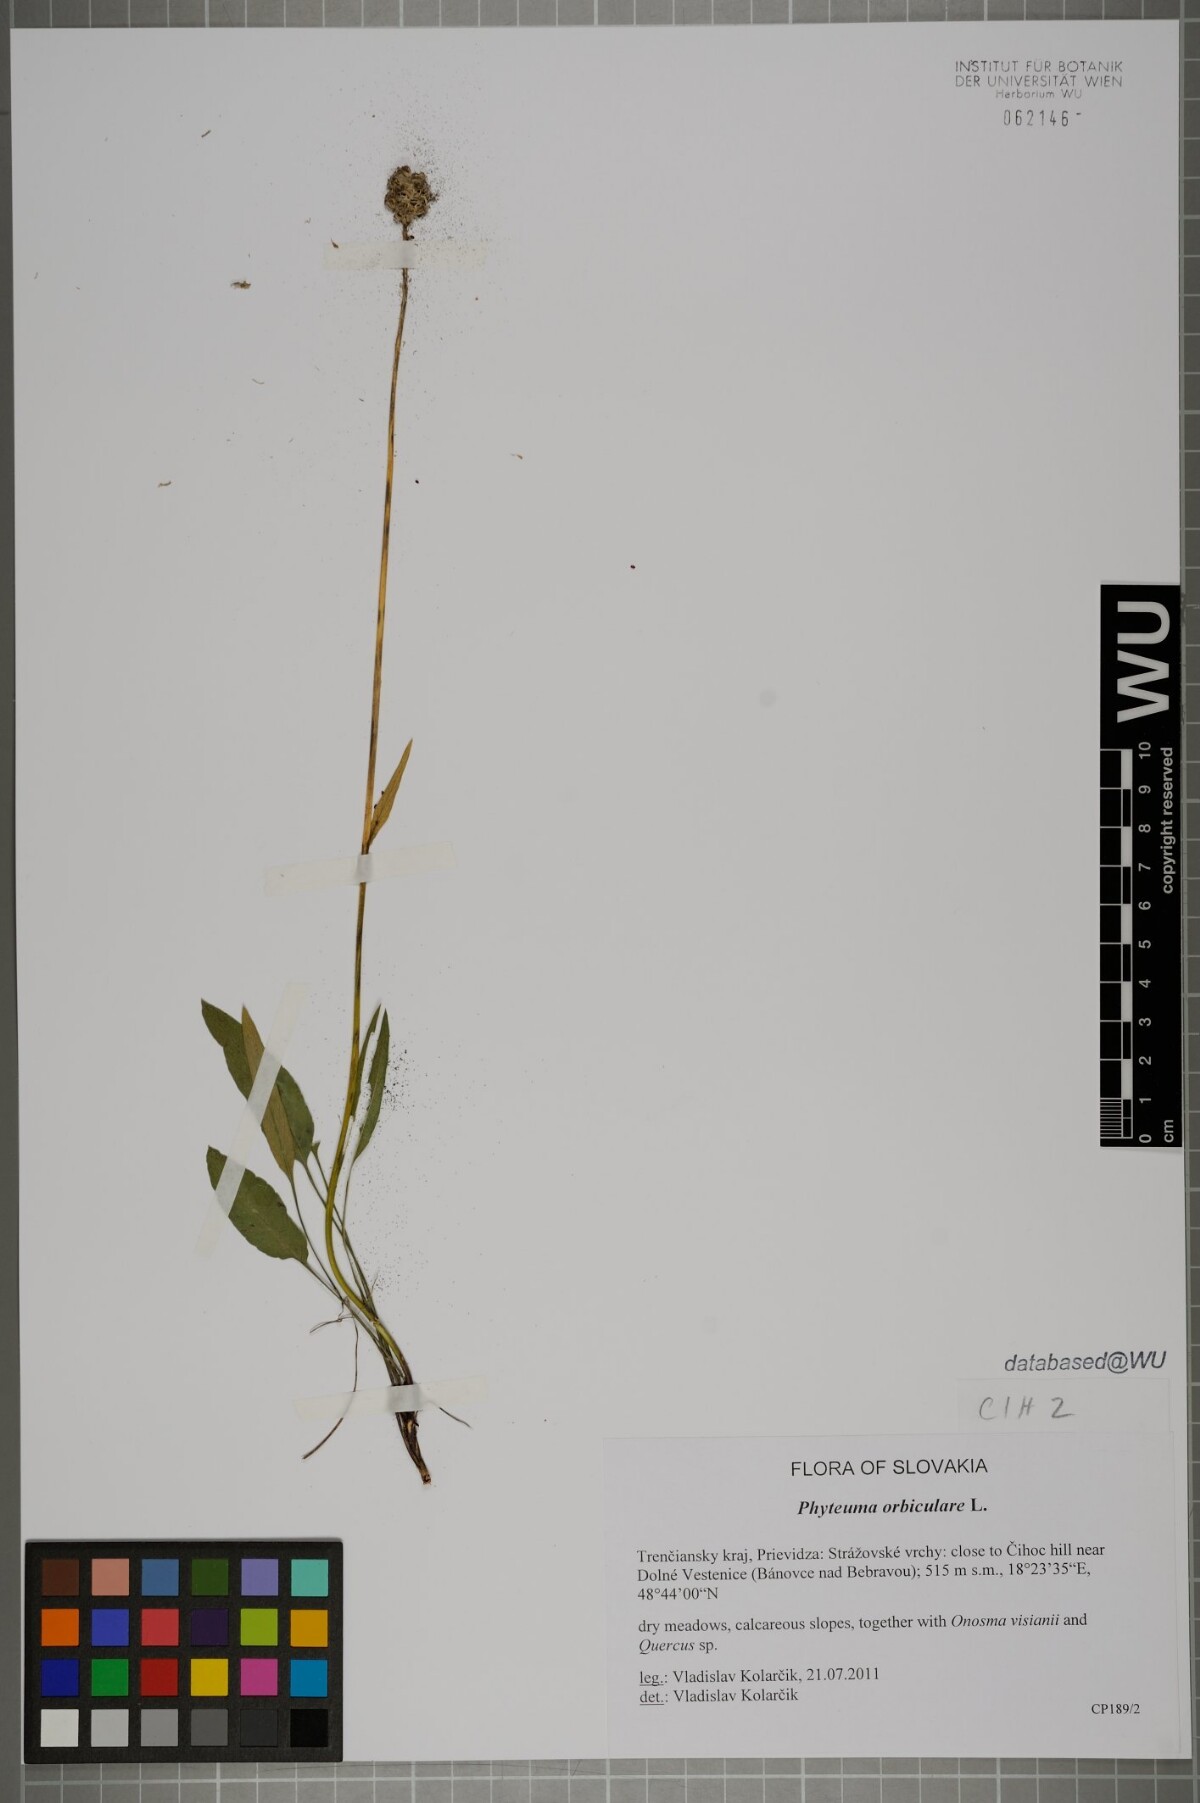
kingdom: Plantae
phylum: Tracheophyta
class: Magnoliopsida
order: Asterales
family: Campanulaceae
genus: Phyteuma
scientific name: Phyteuma orbiculare
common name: Round-headed rampion
